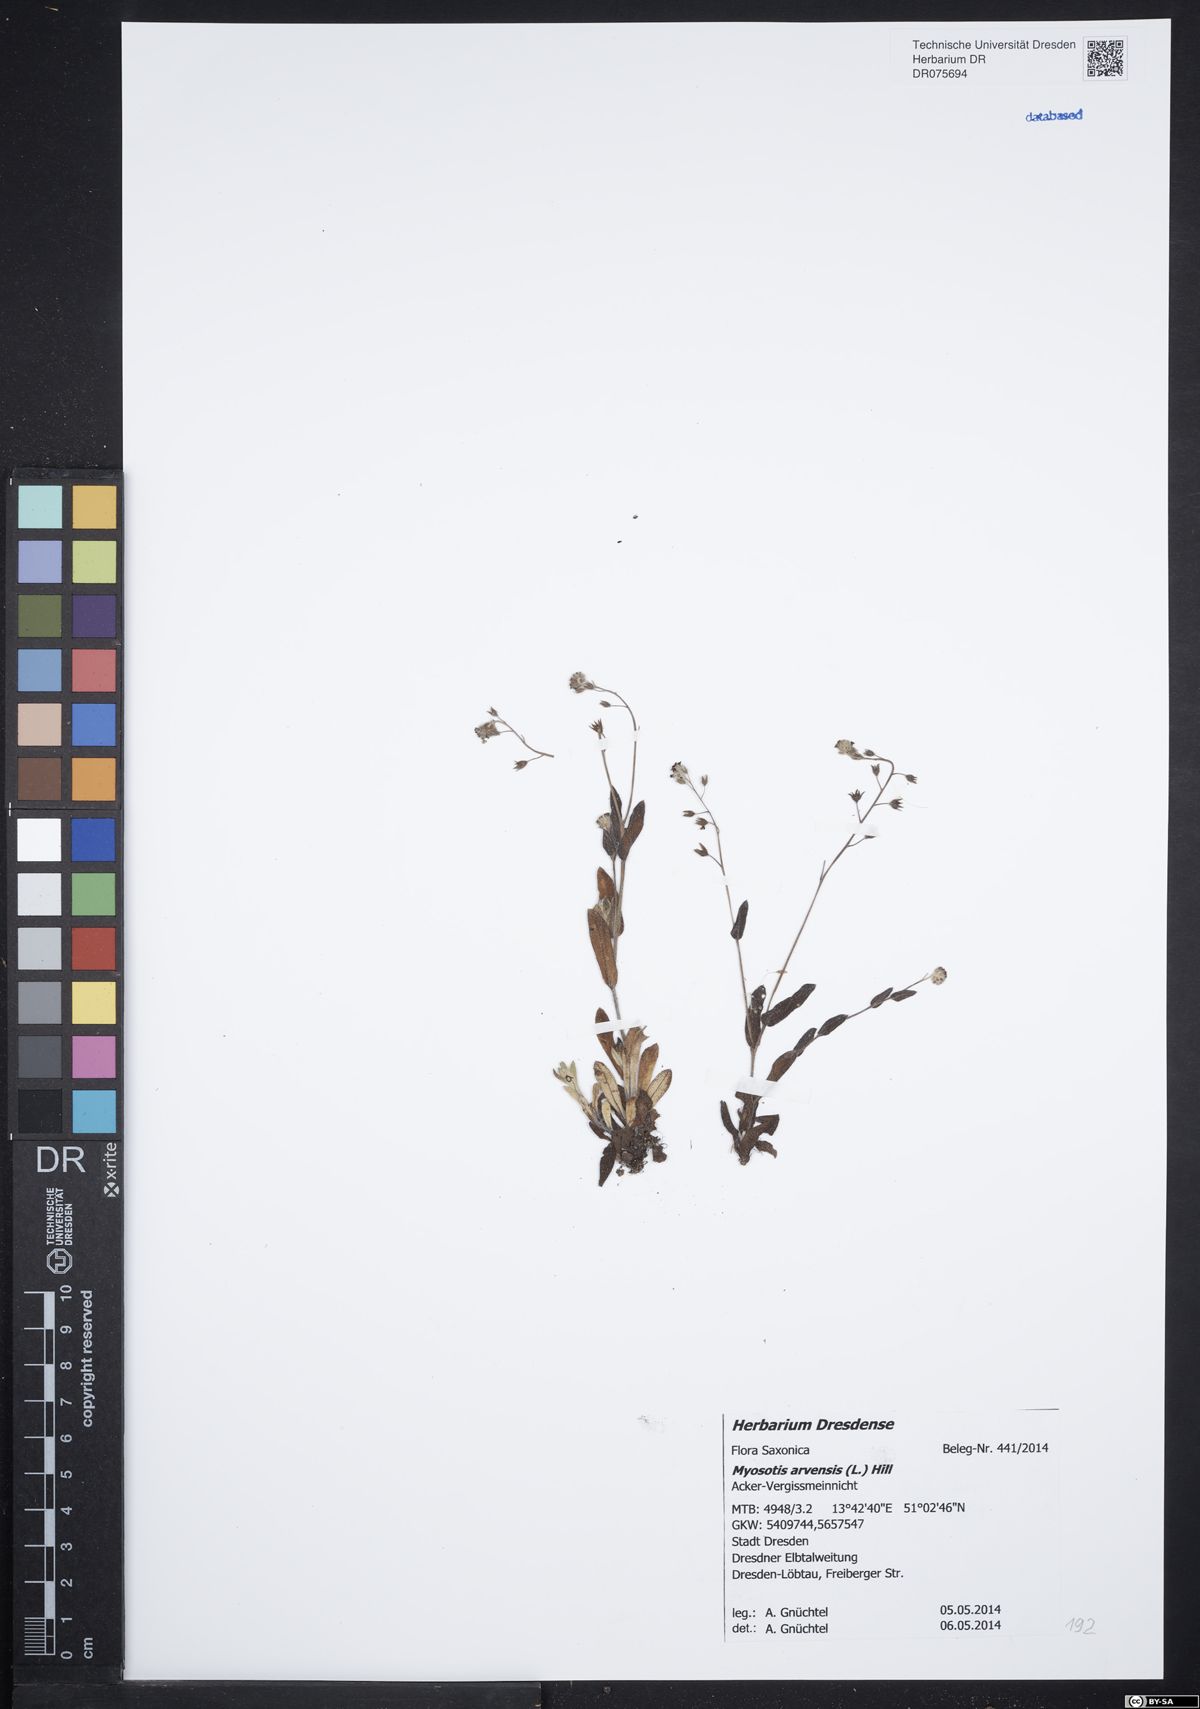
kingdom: Plantae
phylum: Tracheophyta
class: Magnoliopsida
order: Boraginales
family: Boraginaceae
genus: Myosotis
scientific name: Myosotis arvensis
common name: Field forget-me-not
